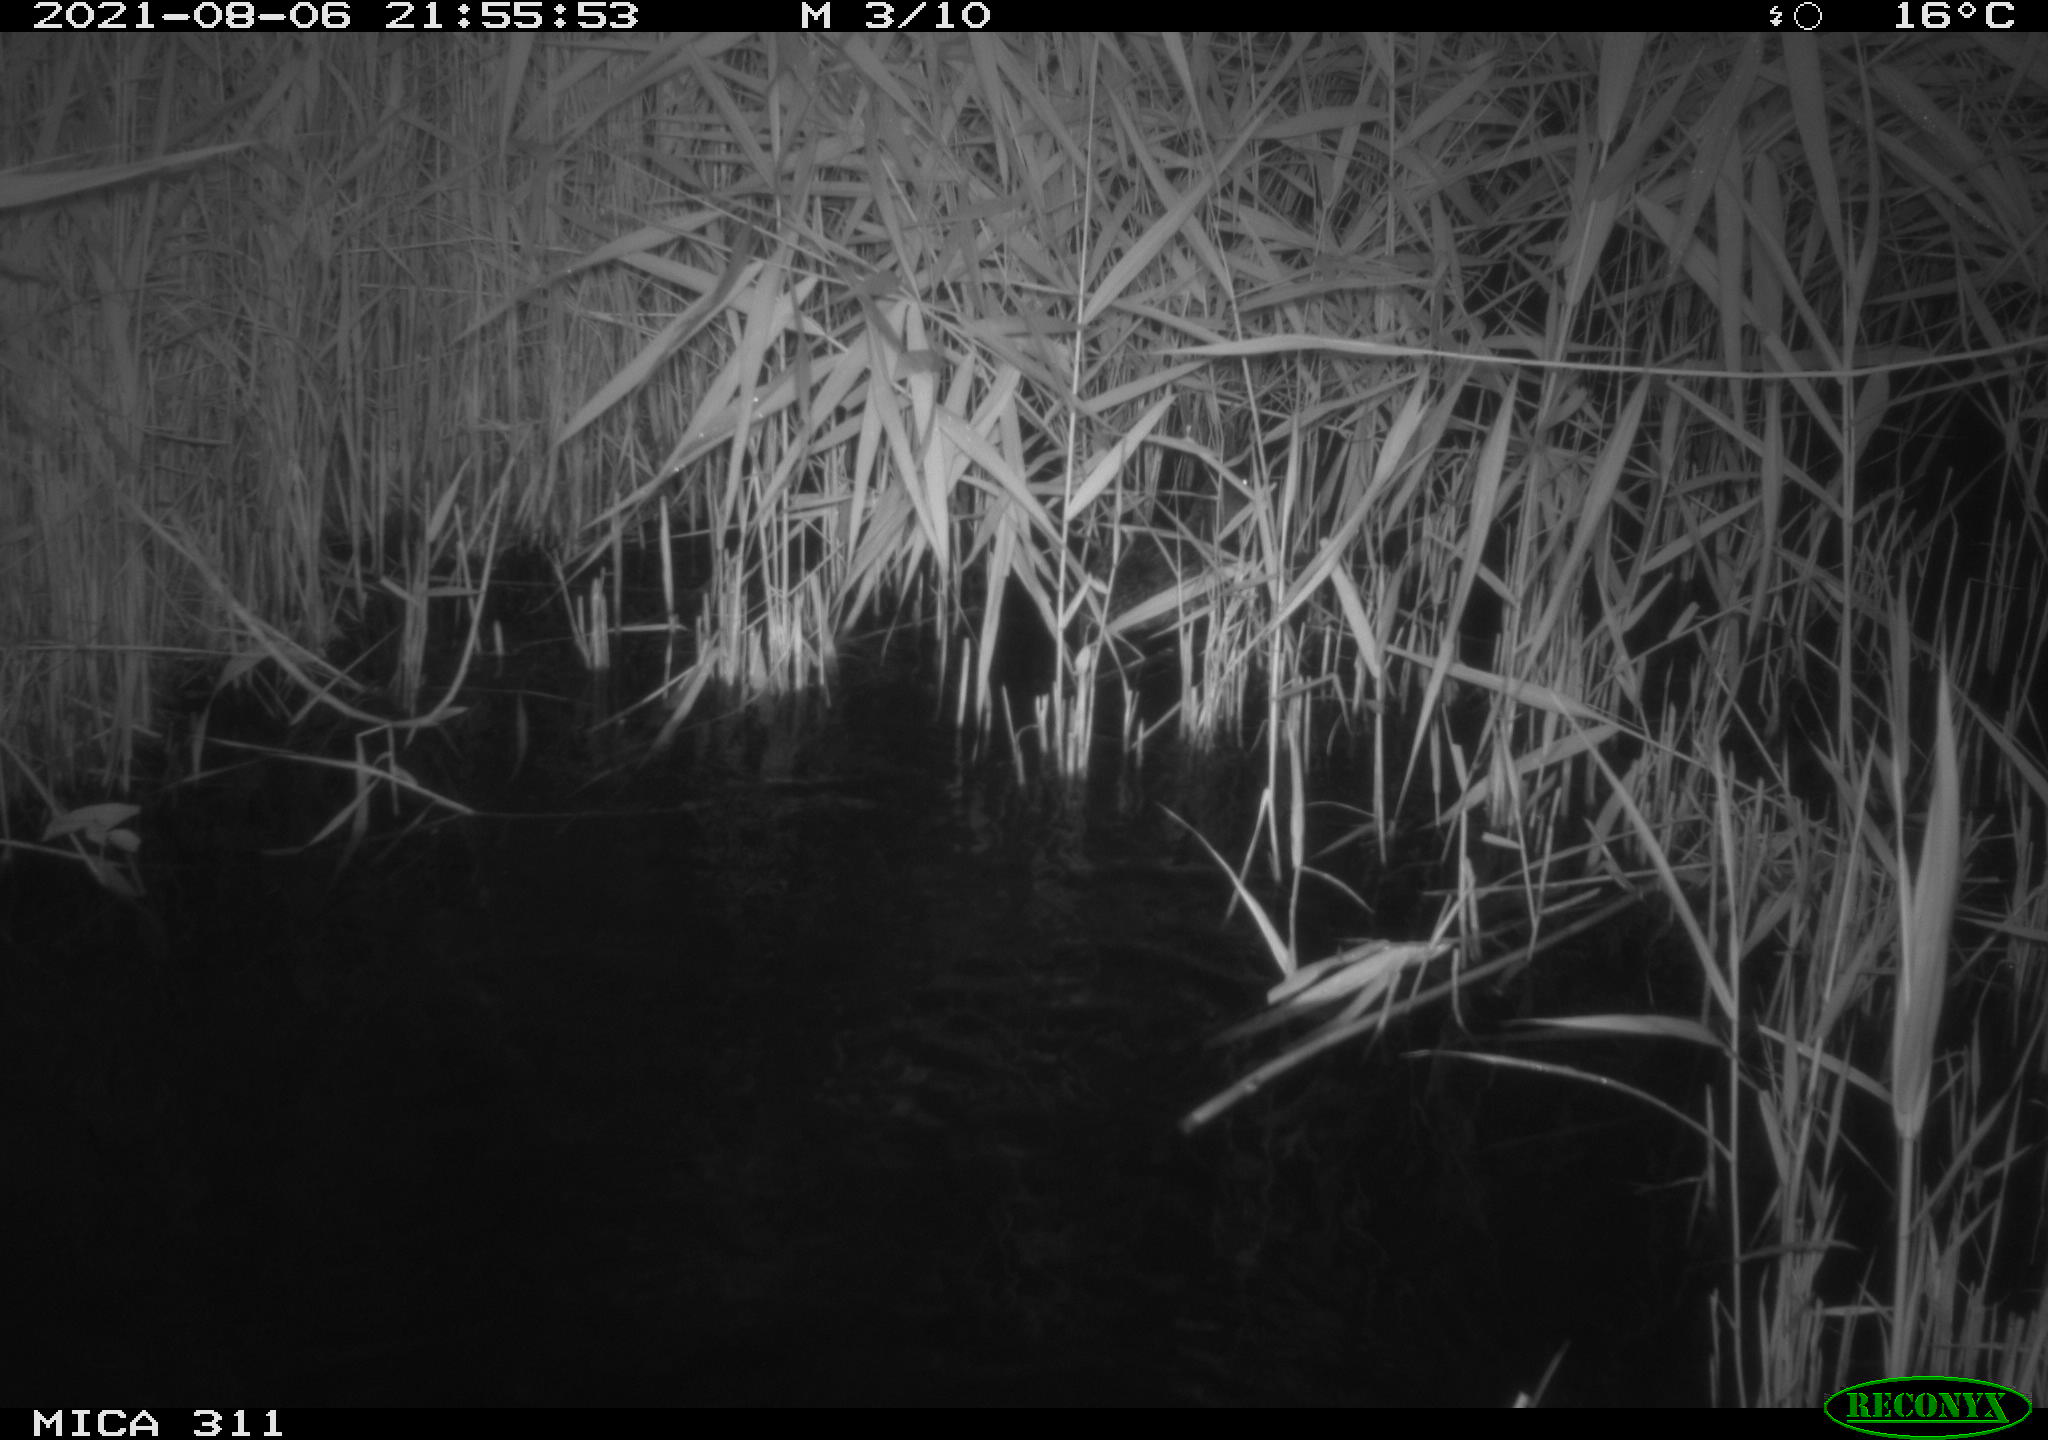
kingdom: Animalia
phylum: Chordata
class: Aves
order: Anseriformes
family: Anatidae
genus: Anas
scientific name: Anas platyrhynchos
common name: Mallard
